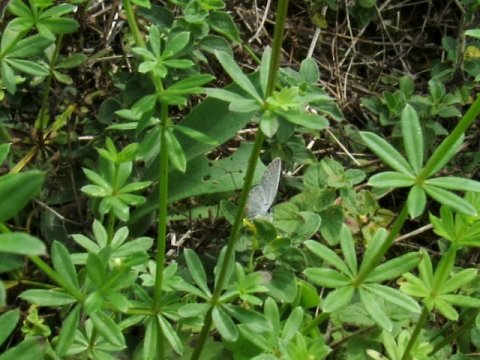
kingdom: Animalia
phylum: Arthropoda
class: Insecta
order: Lepidoptera
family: Lycaenidae
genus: Elkalyce
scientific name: Elkalyce comyntas
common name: Eastern Tailed-Blue
